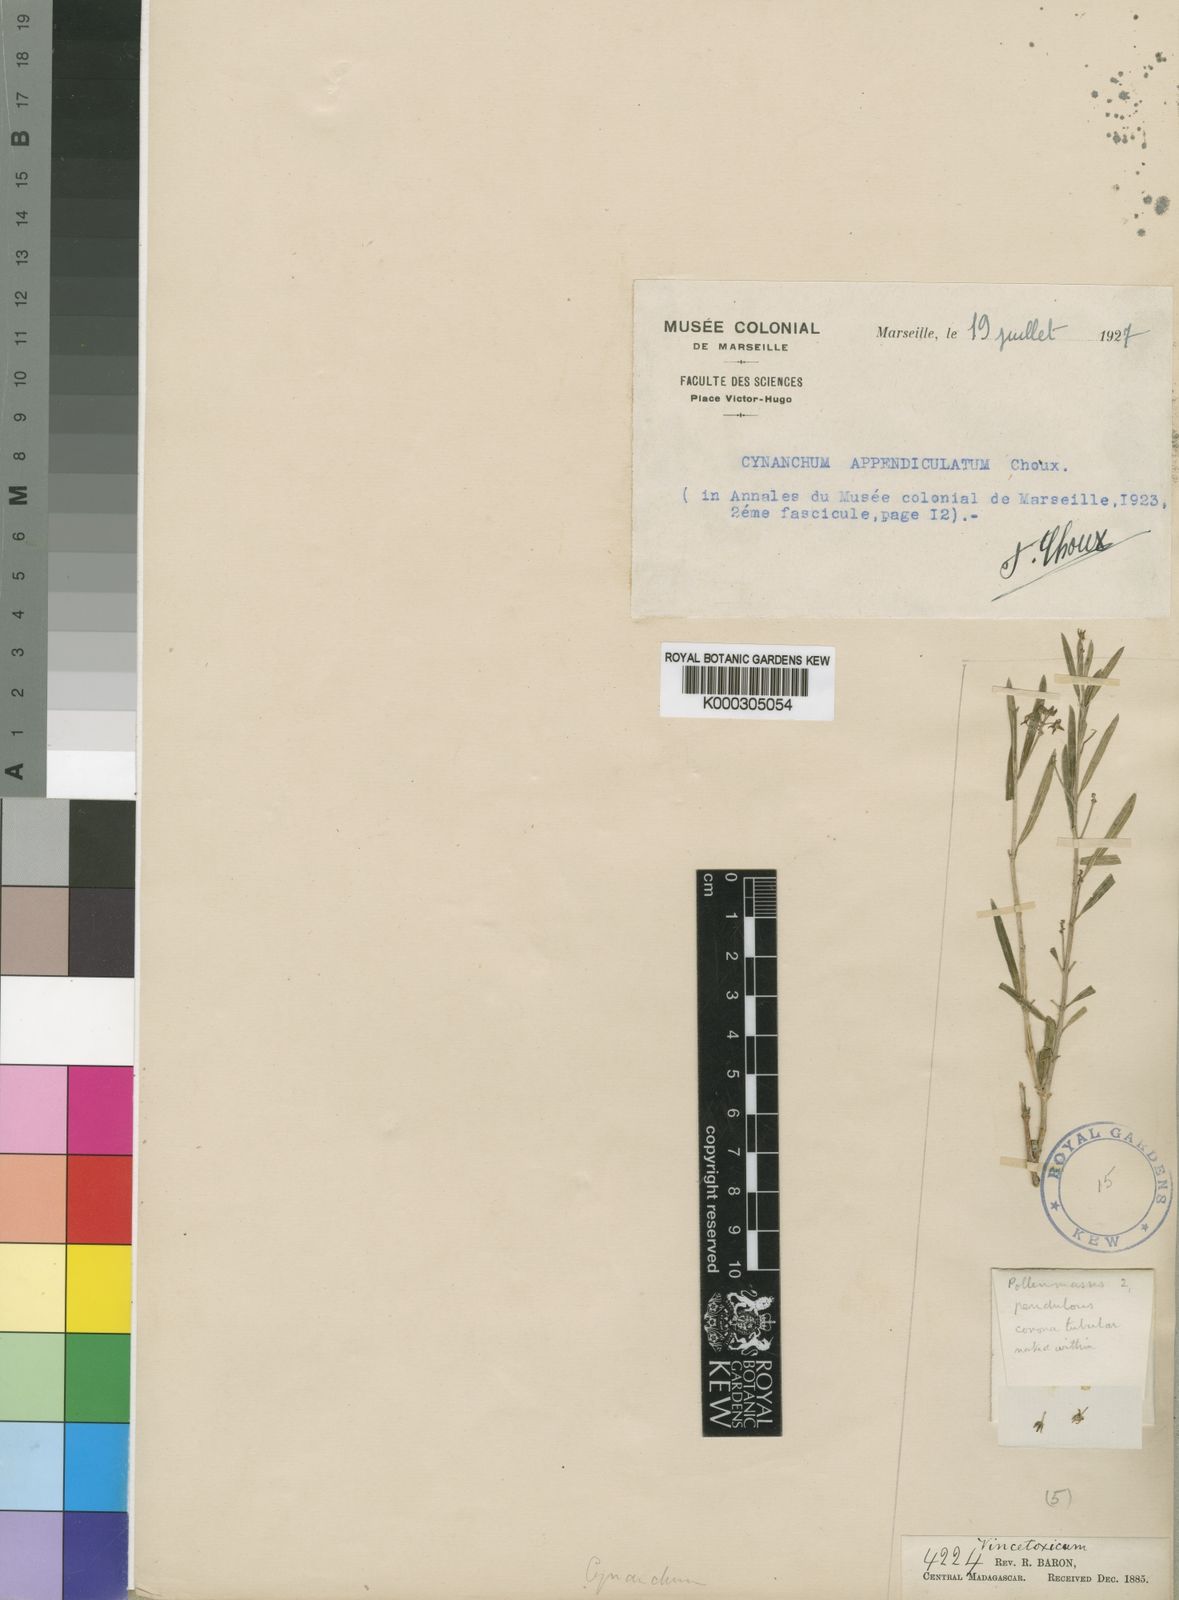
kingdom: Plantae
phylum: Tracheophyta
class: Magnoliopsida
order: Gentianales
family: Apocynaceae
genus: Cynanchum
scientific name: Cynanchum appendiculatum
